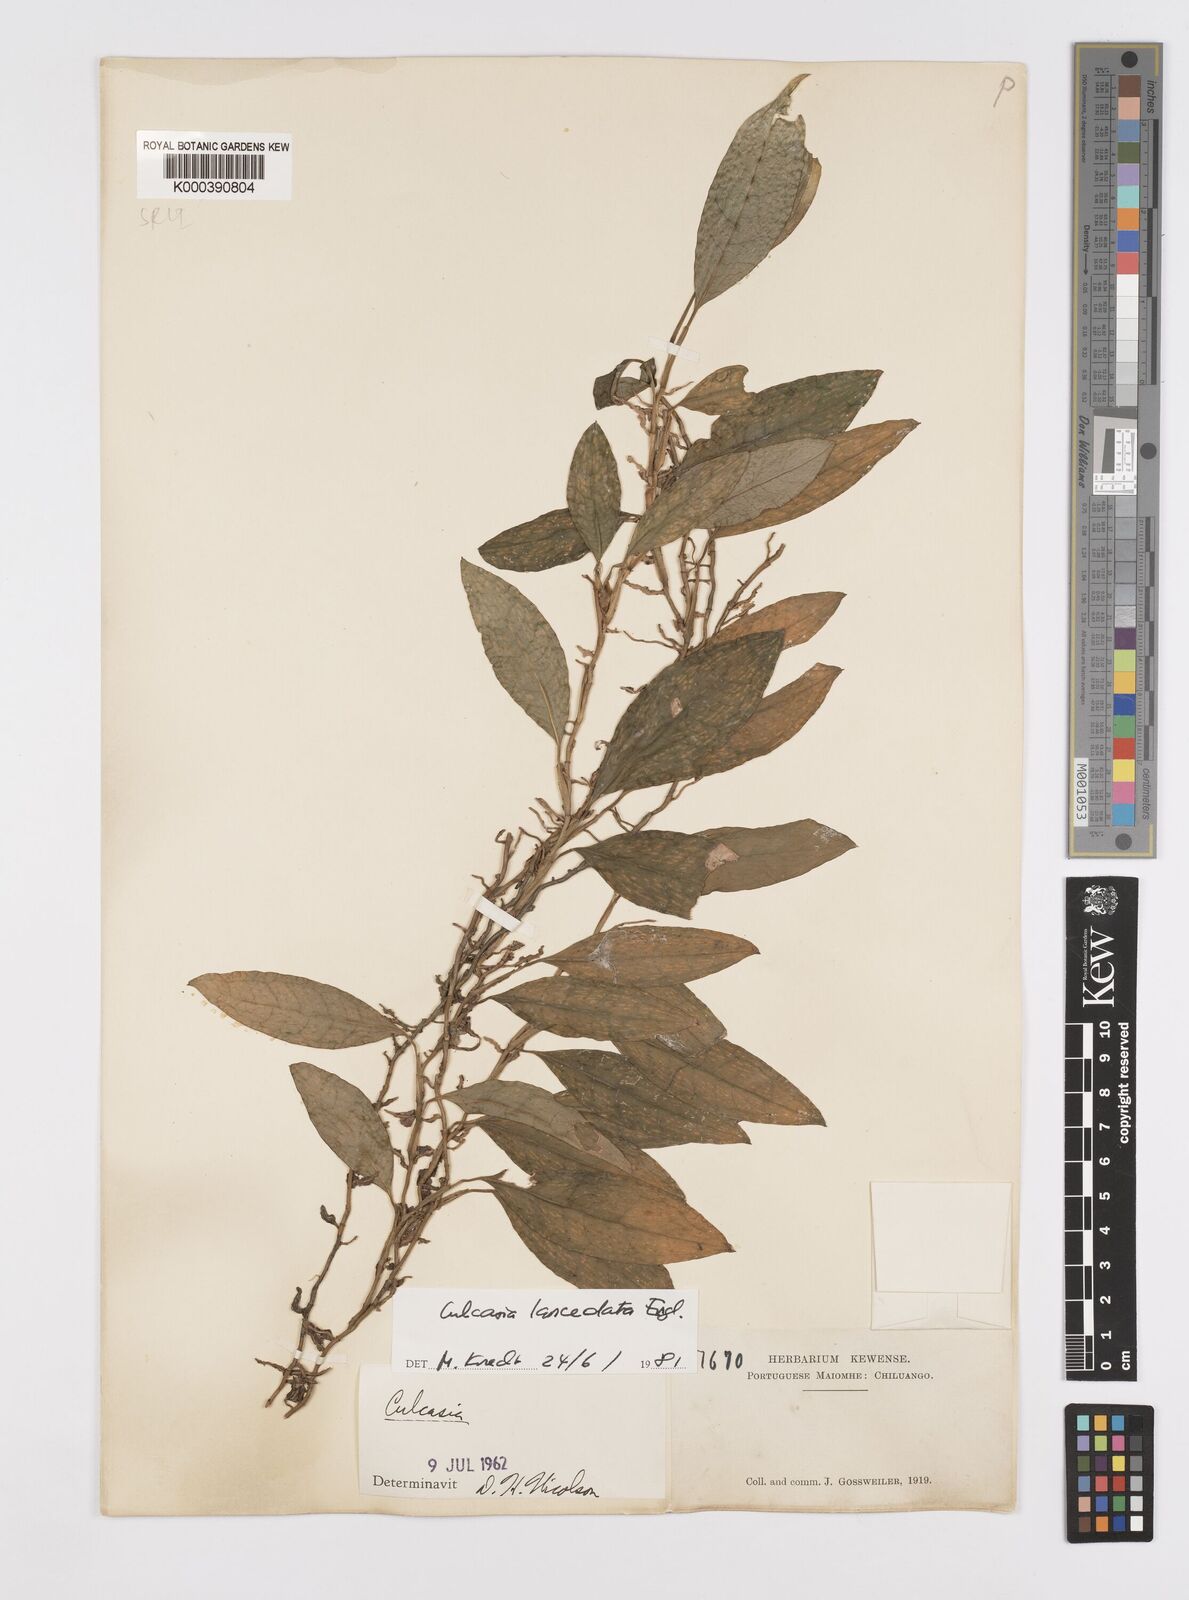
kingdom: Plantae
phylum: Tracheophyta
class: Liliopsida
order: Alismatales
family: Araceae
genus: Culcasia
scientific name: Culcasia lanceolata
